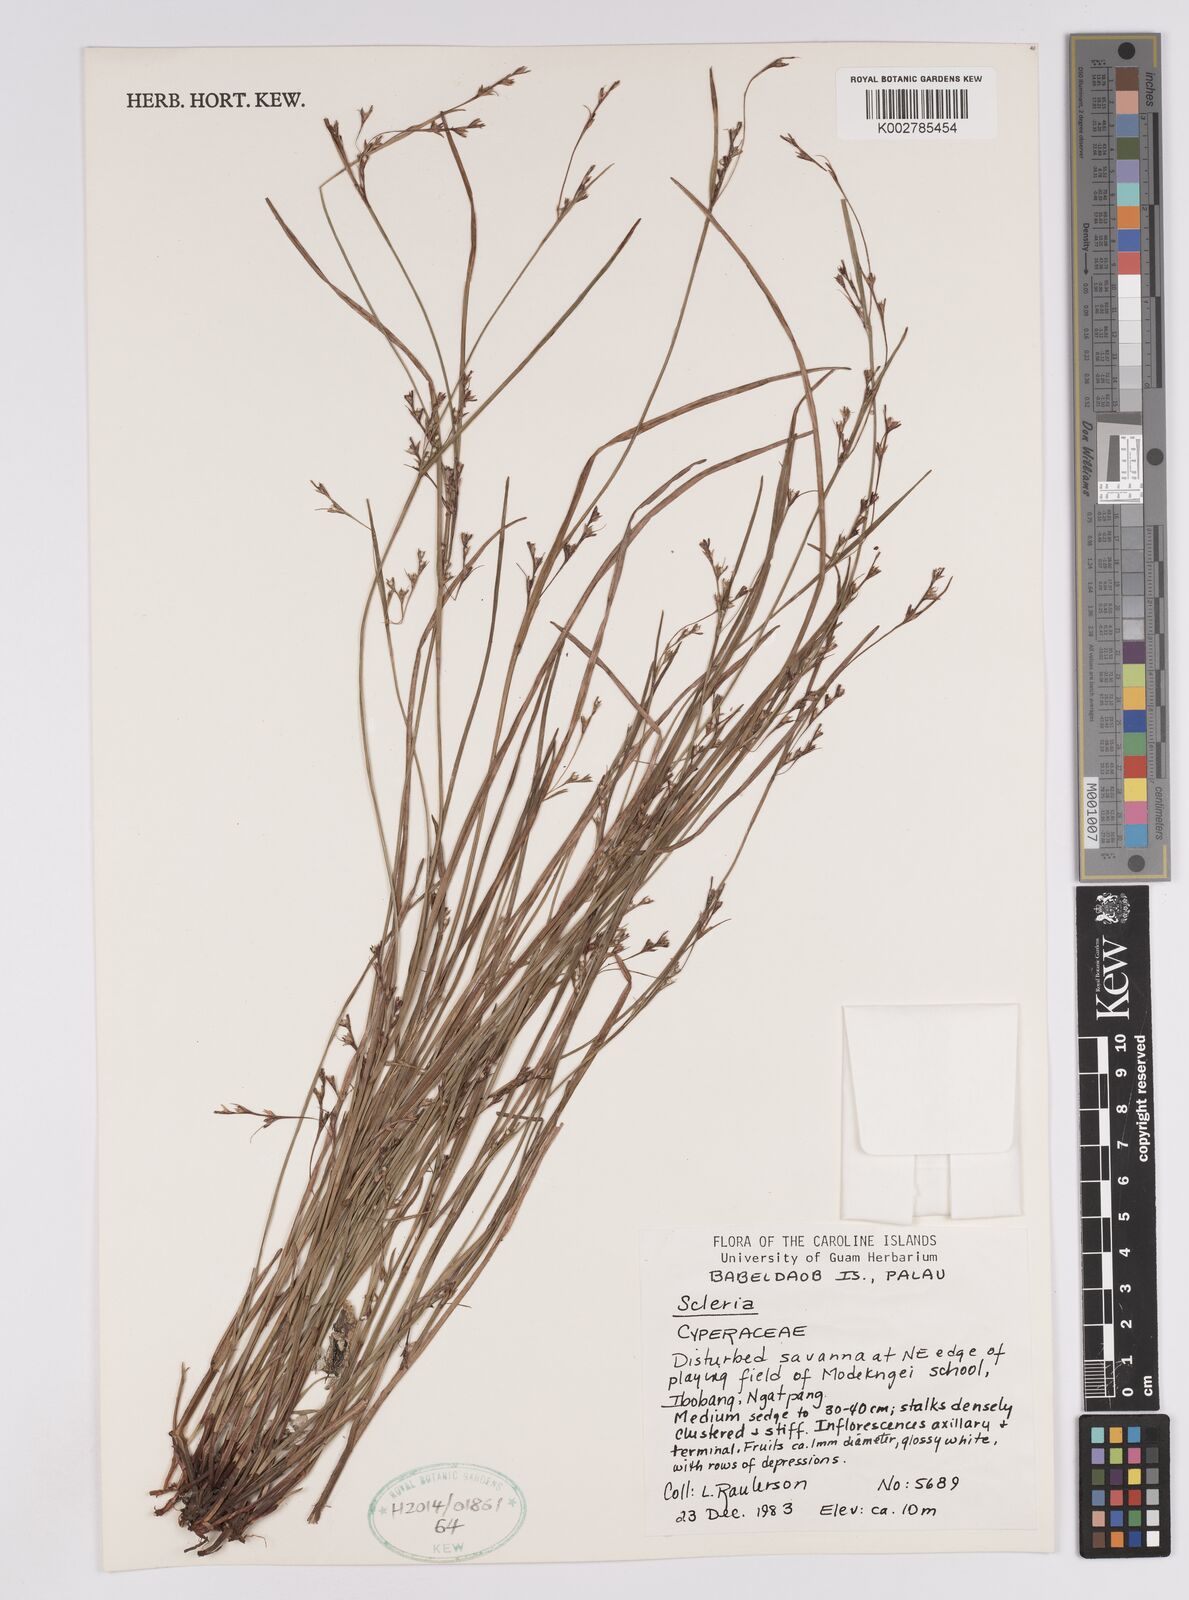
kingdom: Plantae
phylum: Tracheophyta
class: Liliopsida
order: Poales
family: Cyperaceae
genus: Scleria
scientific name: Scleria
